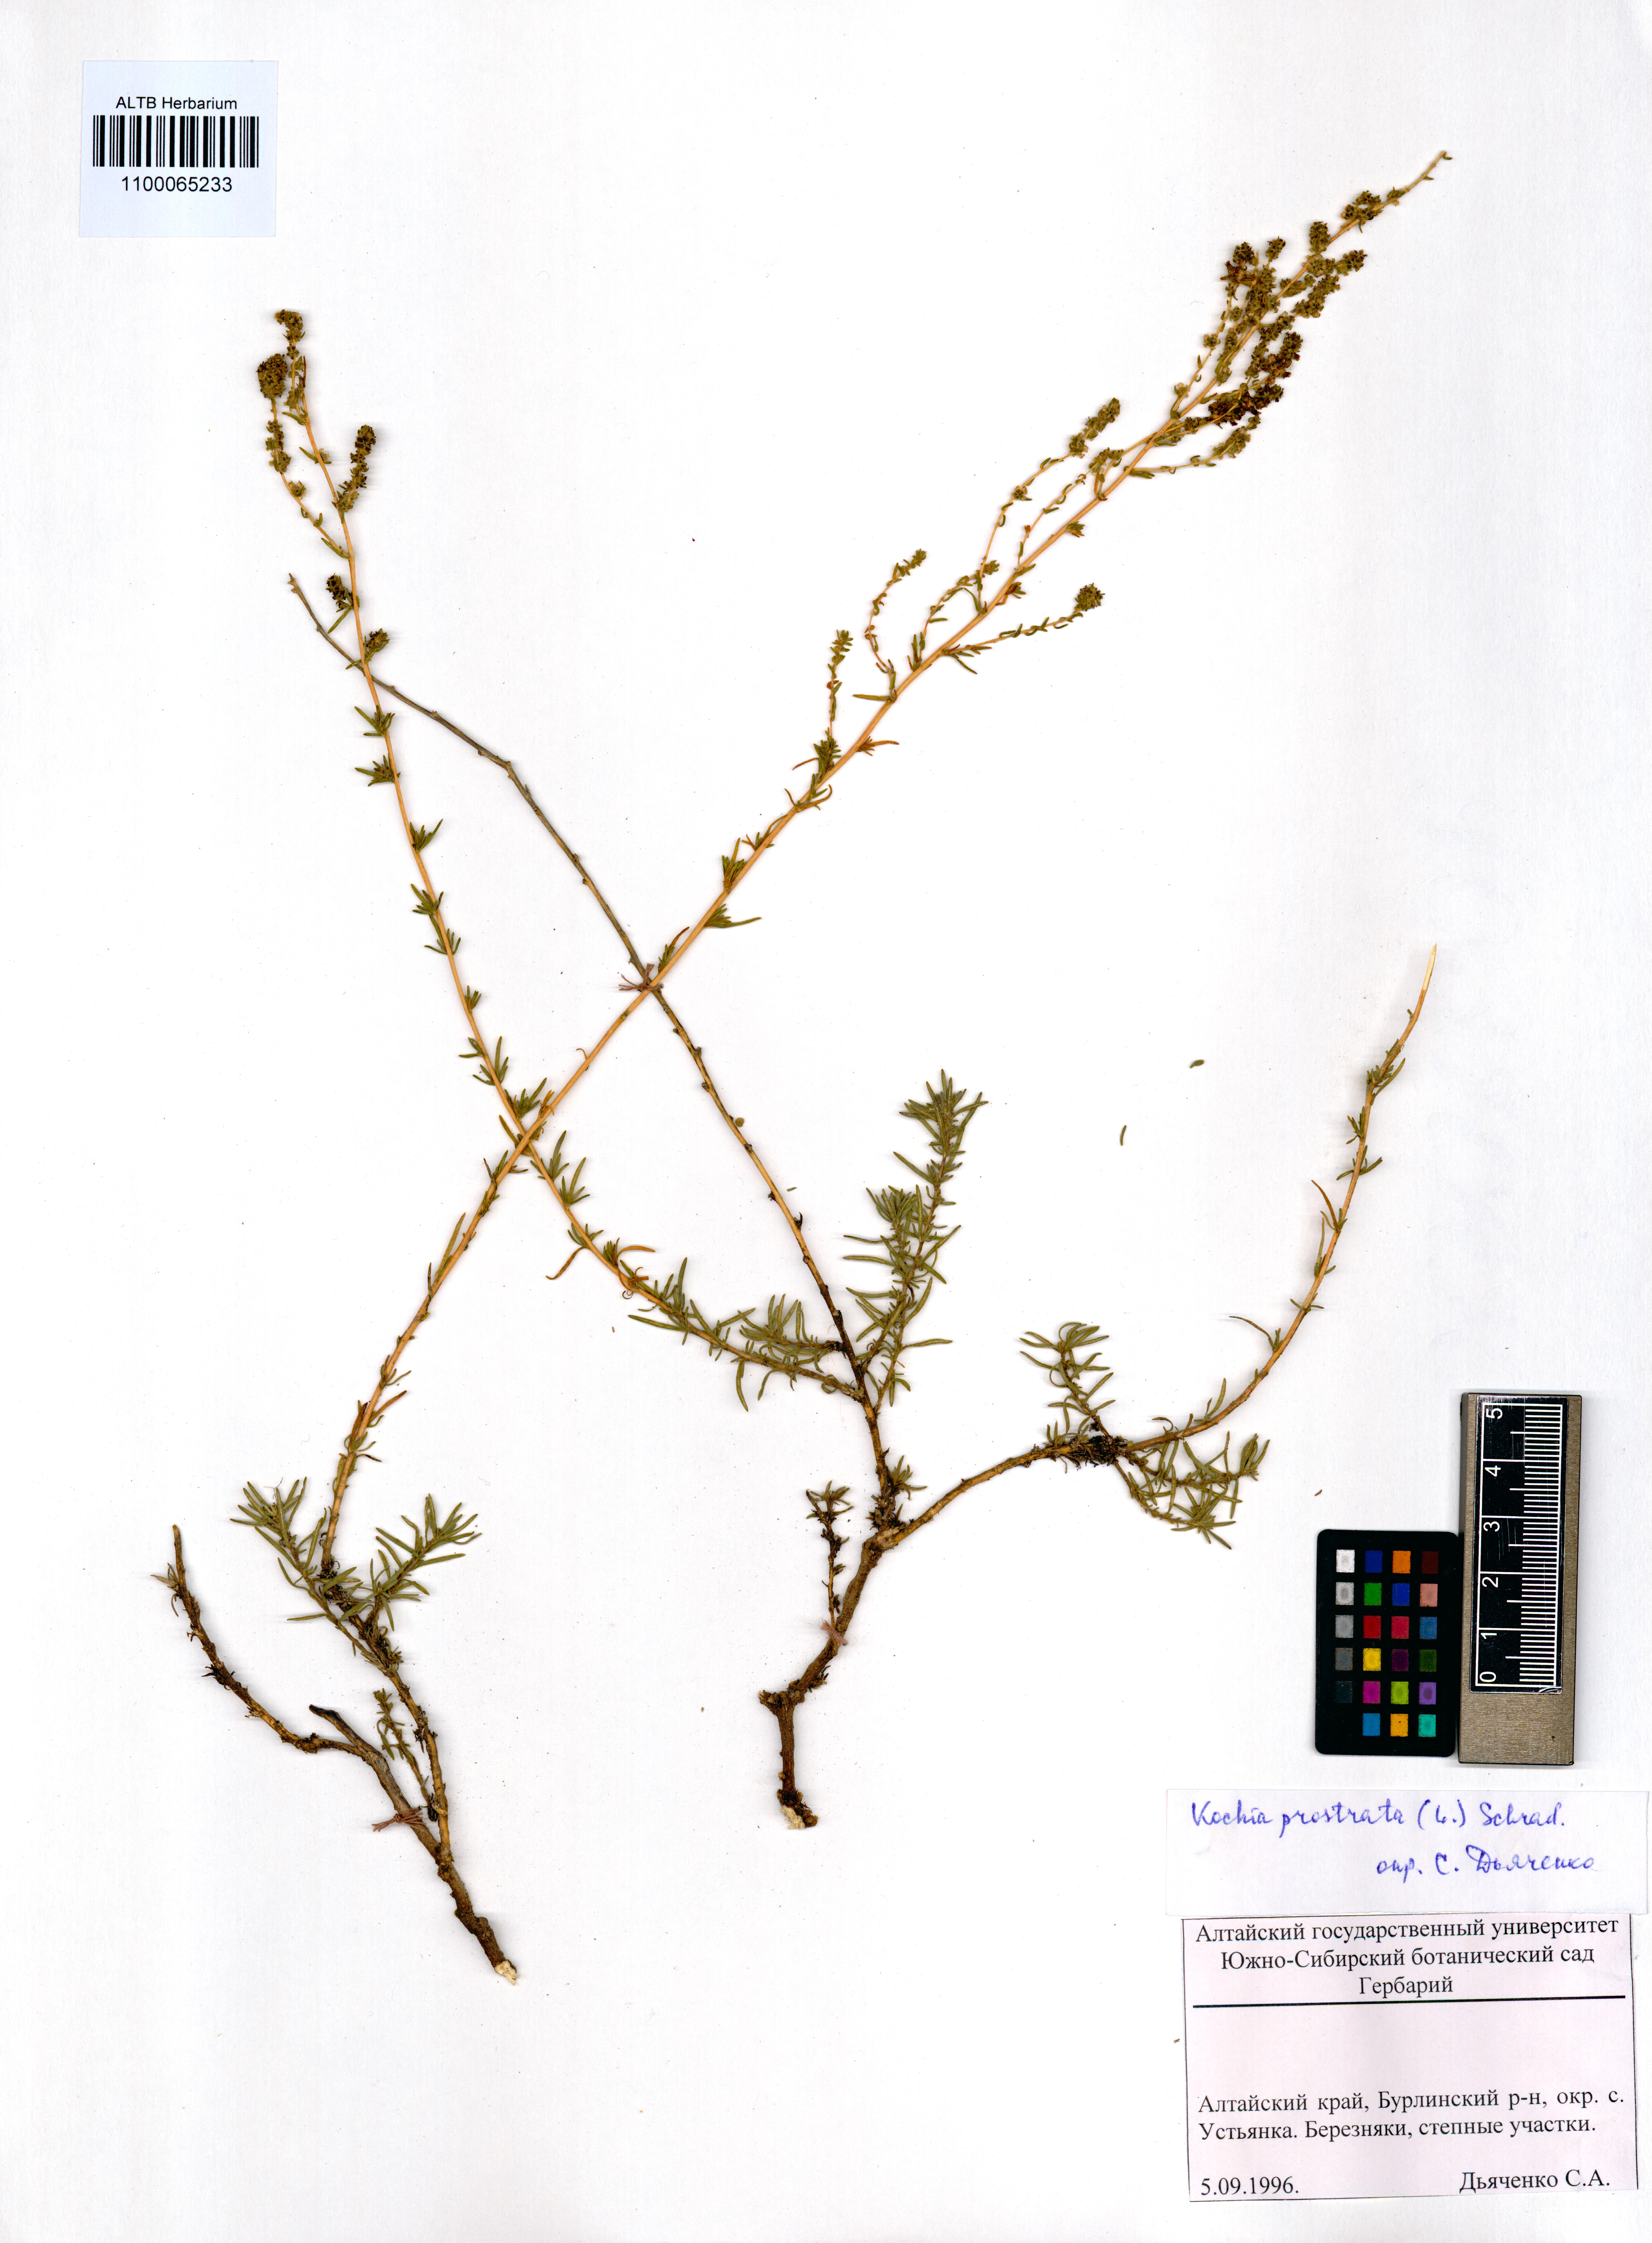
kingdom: Plantae
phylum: Tracheophyta
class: Magnoliopsida
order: Caryophyllales
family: Amaranthaceae
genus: Bassia
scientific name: Bassia prostrata
